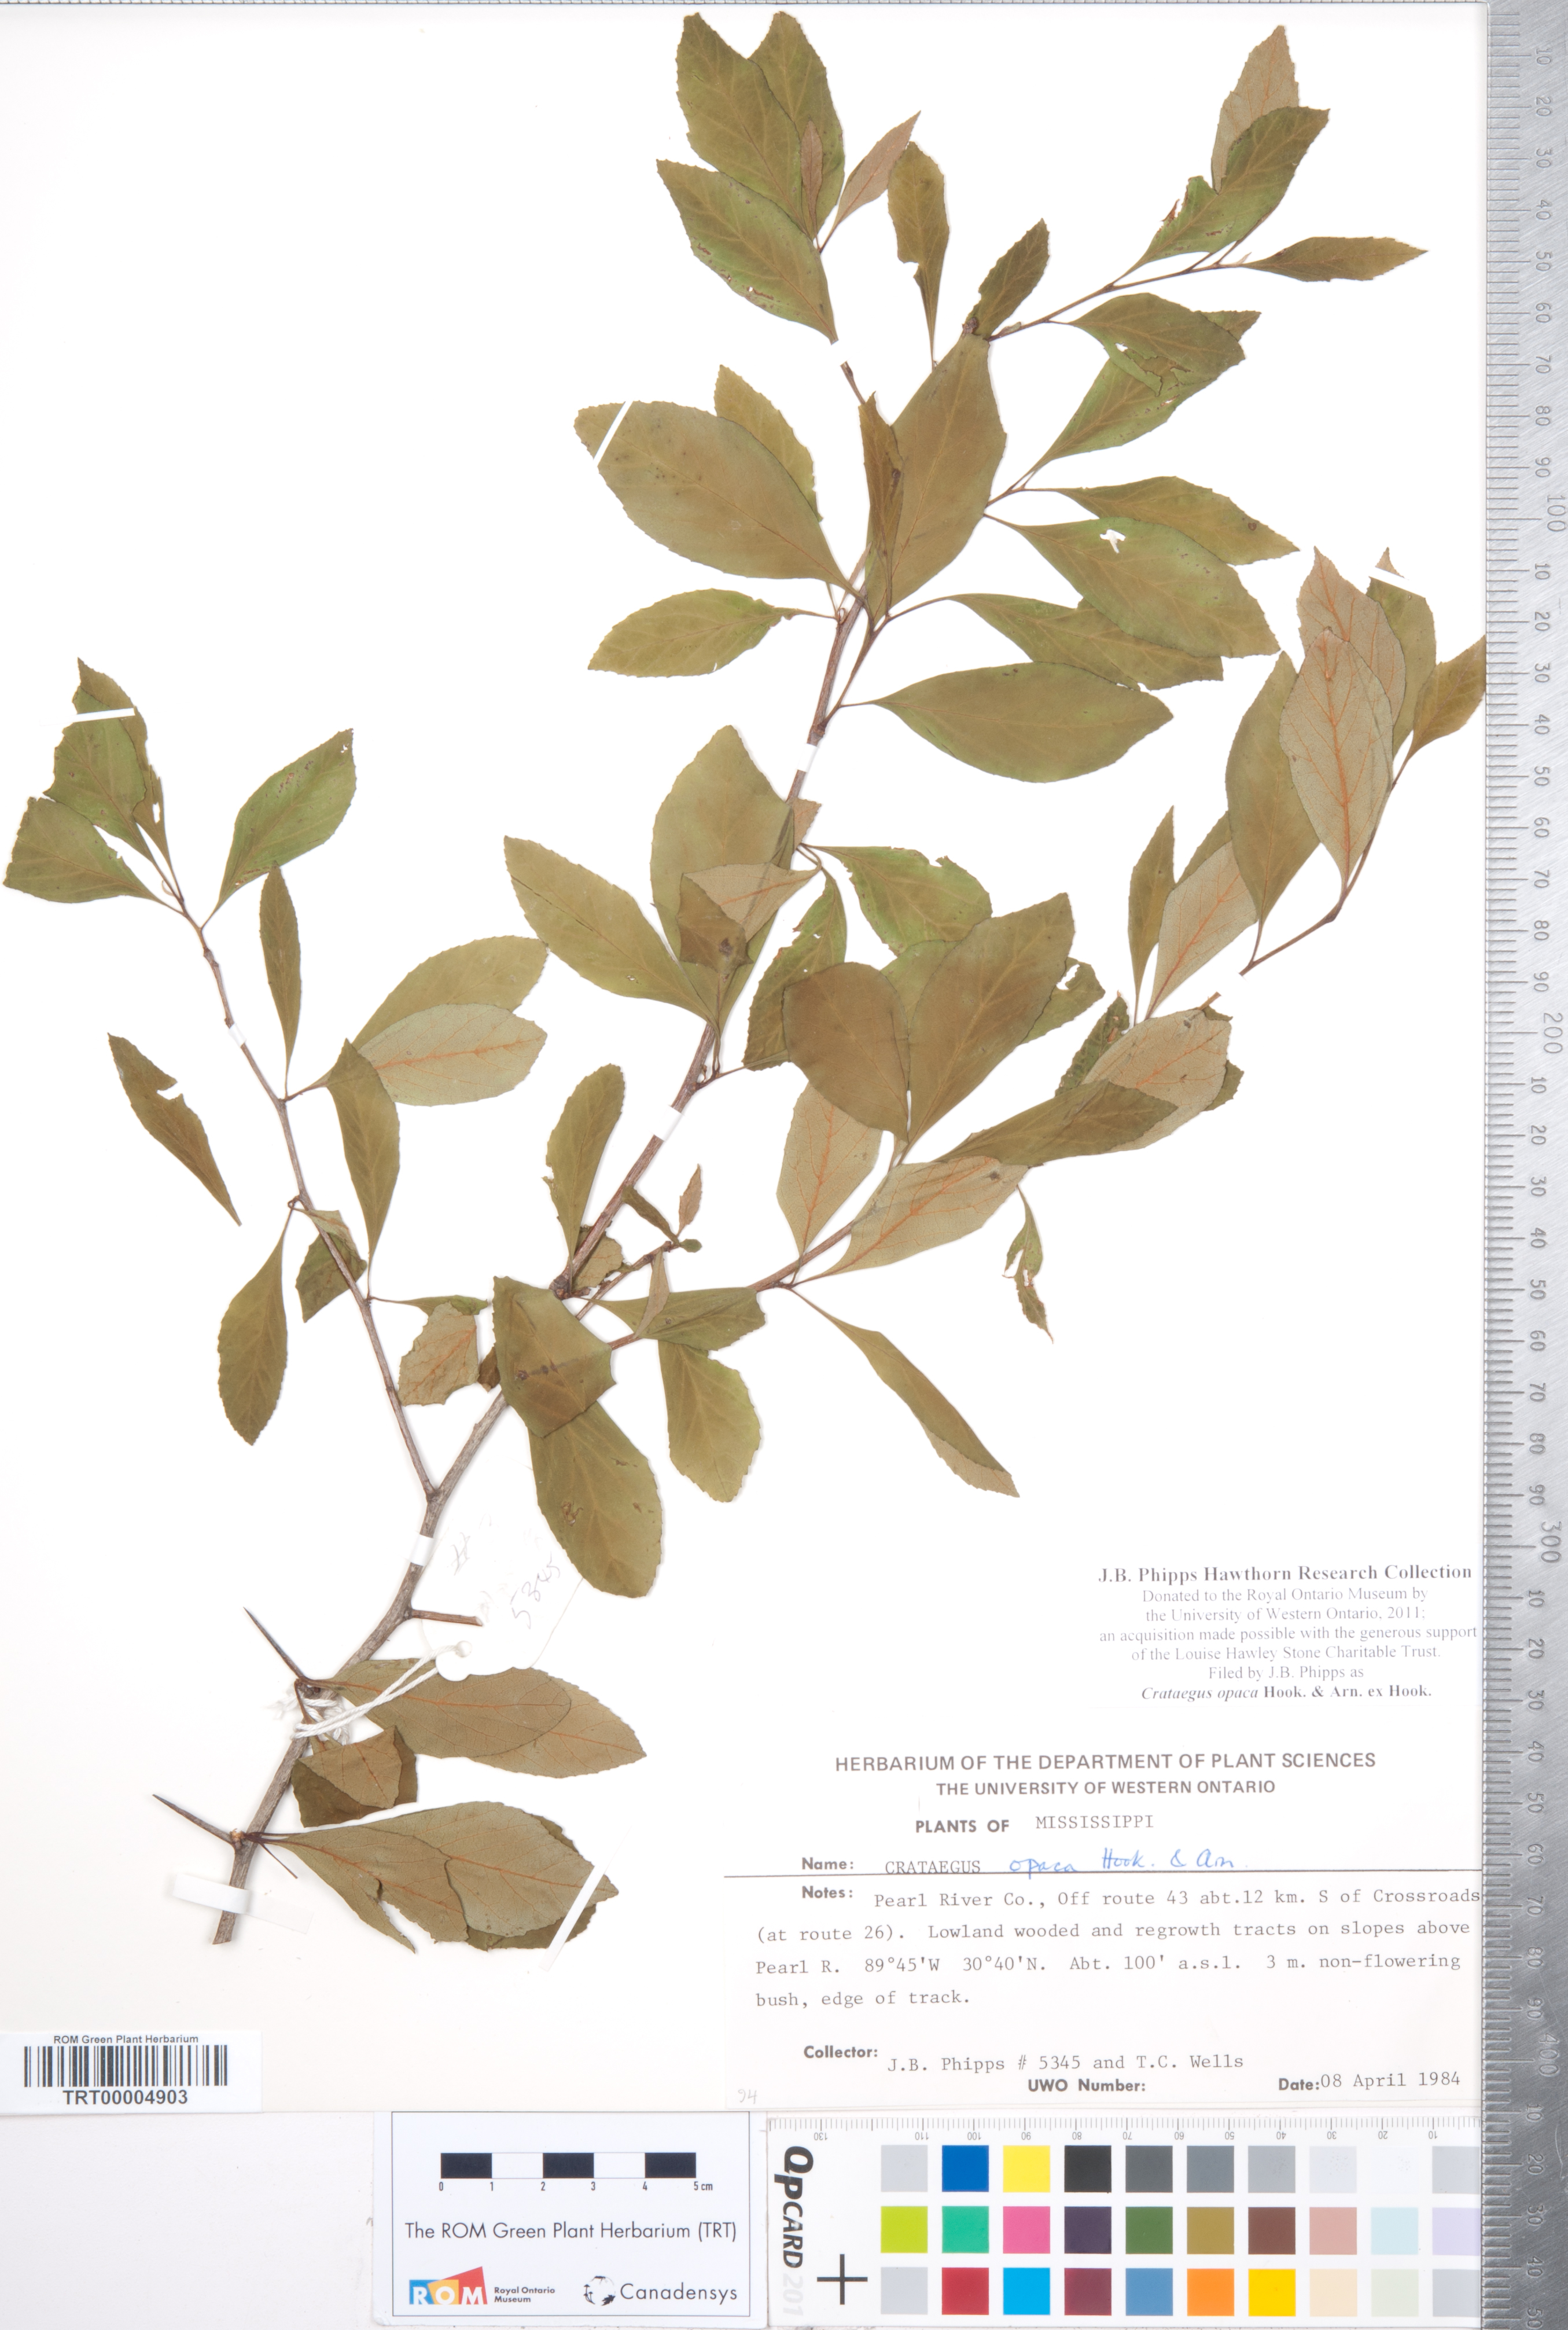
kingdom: Plantae
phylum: Tracheophyta
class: Magnoliopsida
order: Rosales
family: Rosaceae
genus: Crataegus
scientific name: Crataegus opaca
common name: Apple haw
